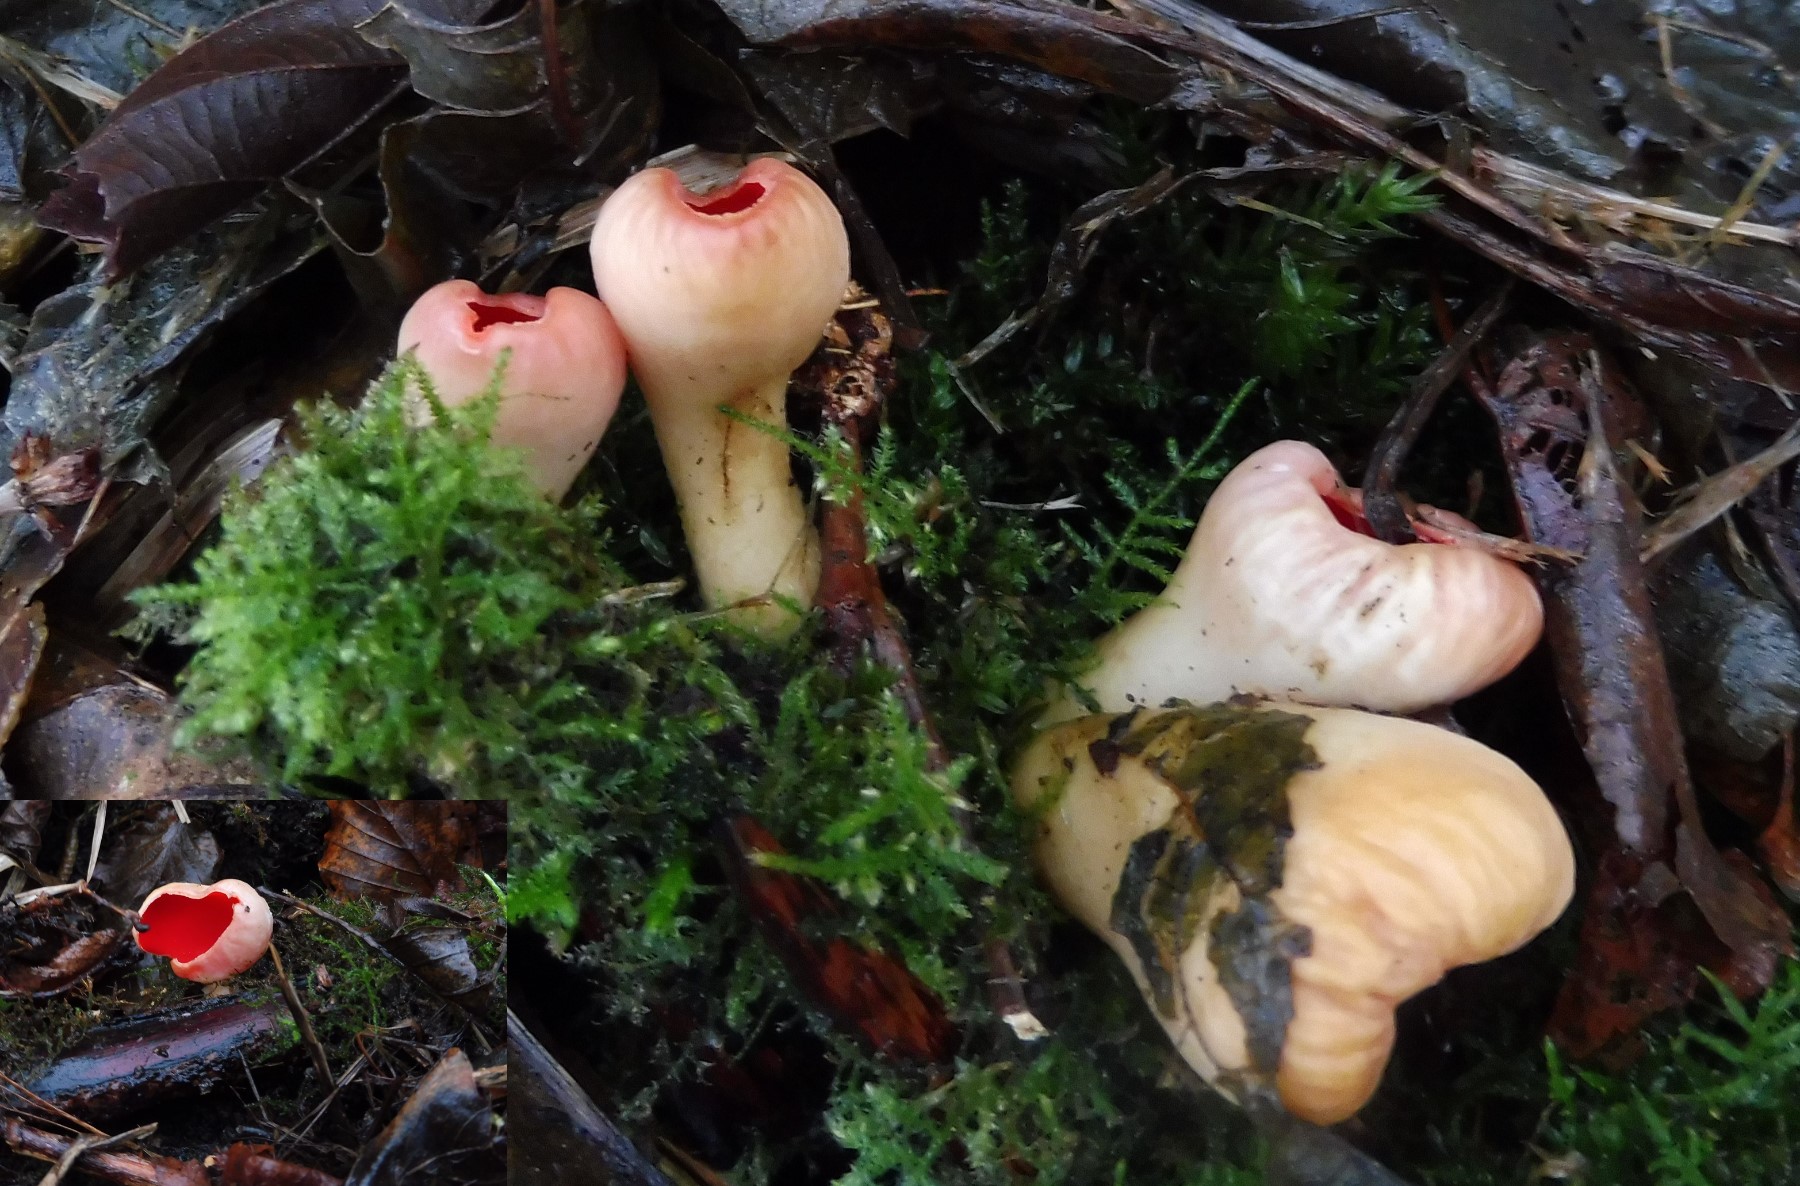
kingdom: Fungi
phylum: Ascomycota
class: Pezizomycetes
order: Pezizales
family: Sarcoscyphaceae
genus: Sarcoscypha
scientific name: Sarcoscypha austriaca
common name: krølhåret pragtbæger
